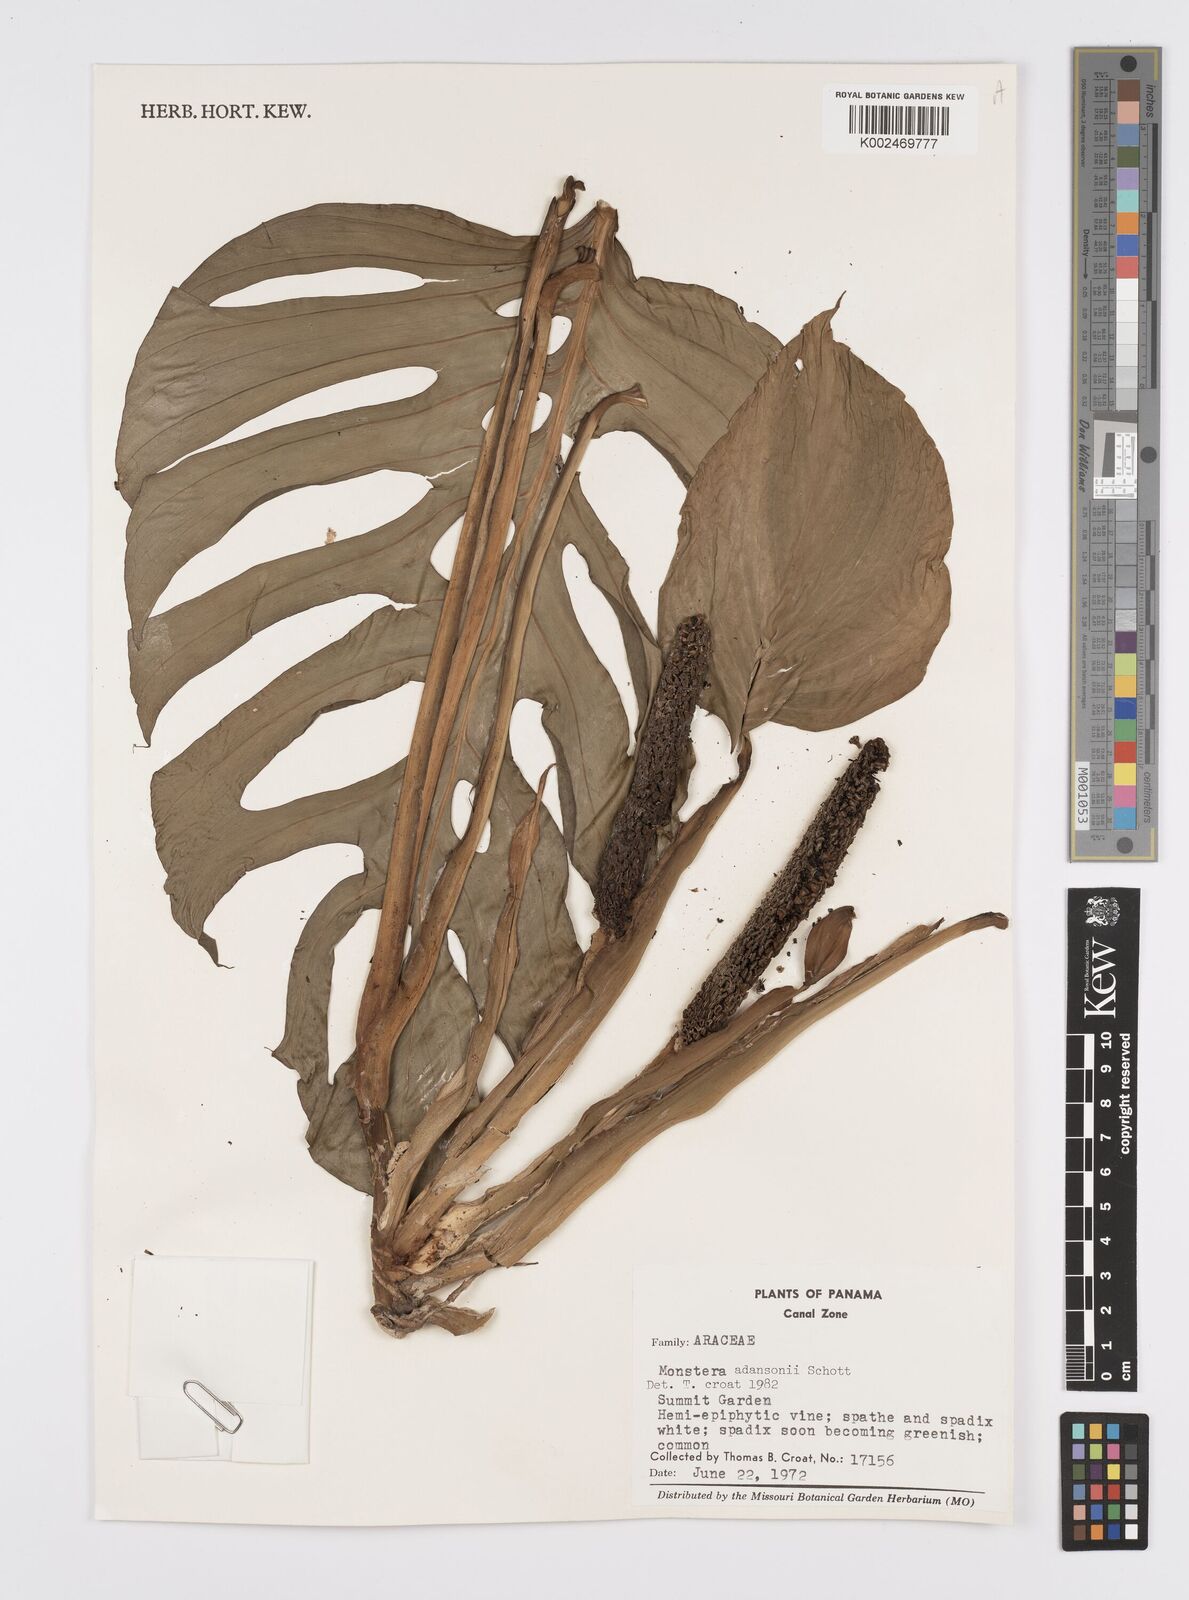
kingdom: Plantae
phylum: Tracheophyta
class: Liliopsida
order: Alismatales
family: Araceae
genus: Monstera
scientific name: Monstera adansonii
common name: Tarovine
